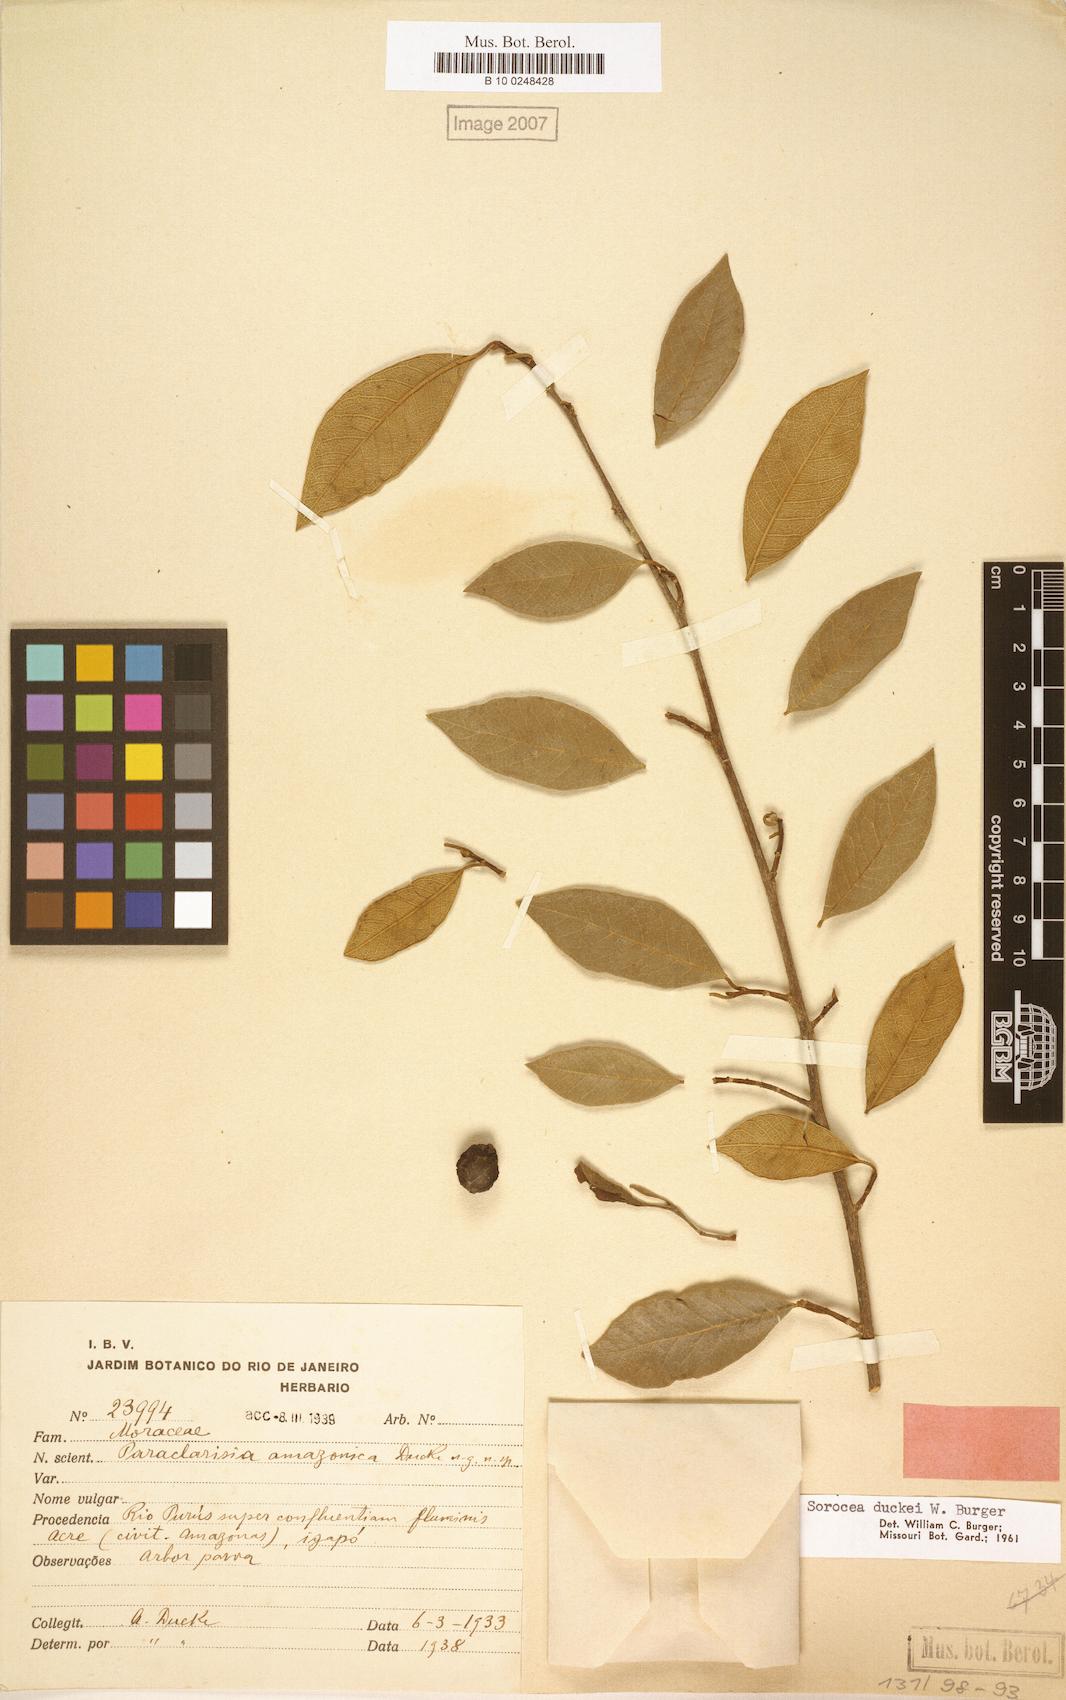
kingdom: Plantae
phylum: Tracheophyta
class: Magnoliopsida
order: Rosales
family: Moraceae
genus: Sorocea
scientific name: Sorocea duckei
